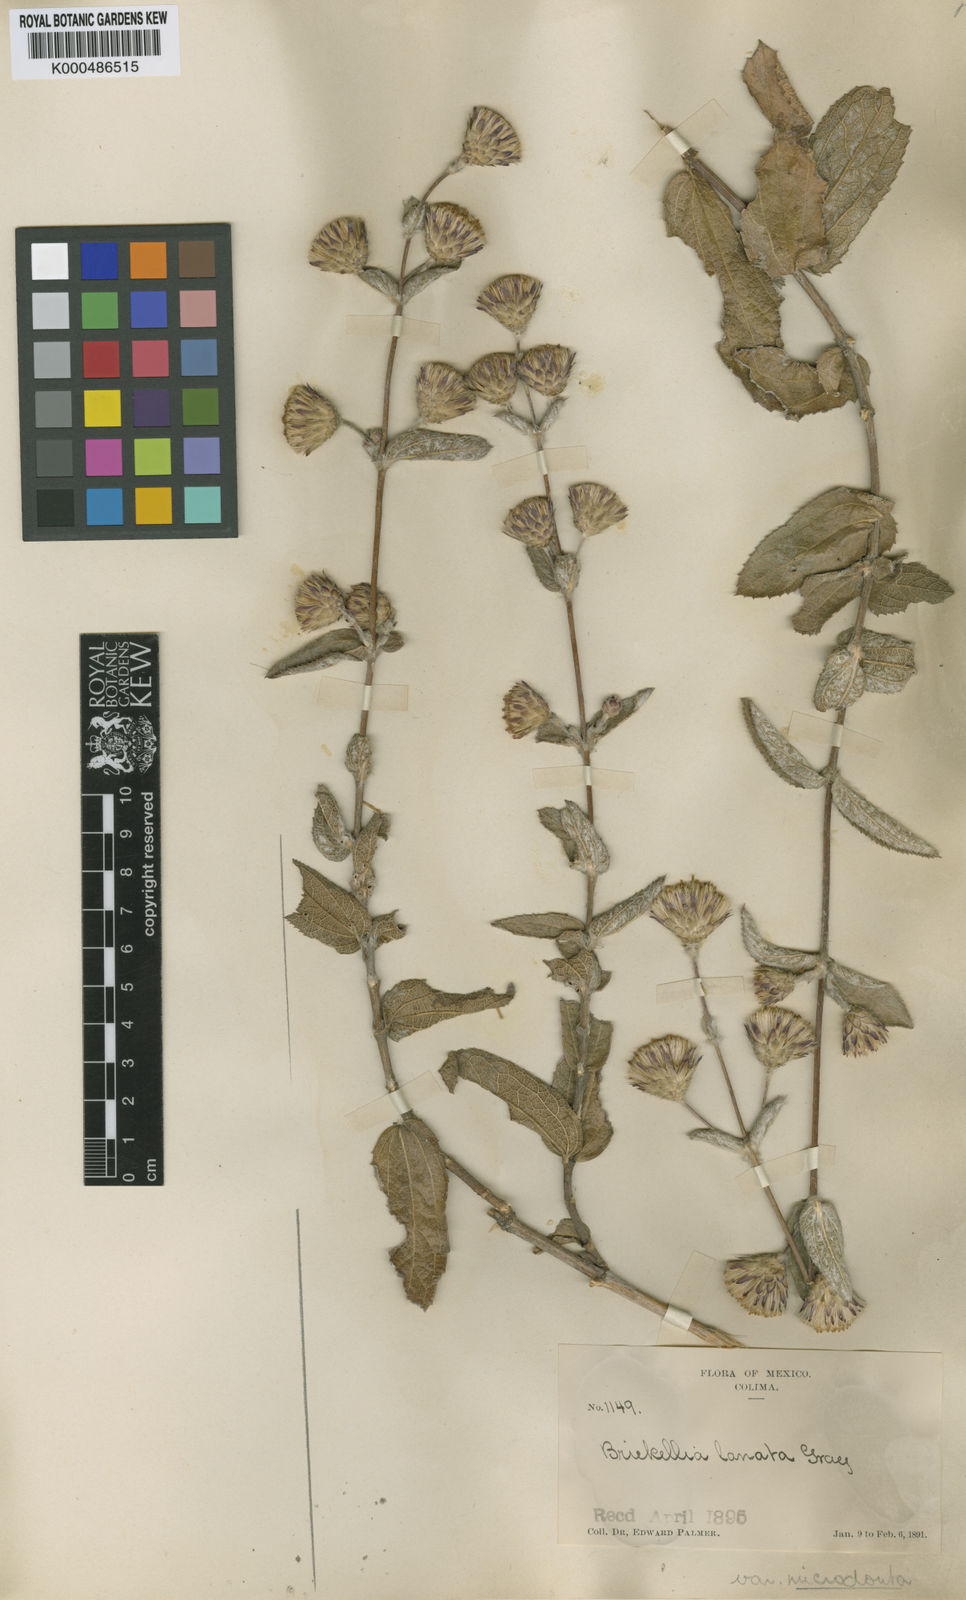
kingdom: Plantae
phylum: Tracheophyta
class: Magnoliopsida
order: Asterales
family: Asteraceae
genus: Brickellia
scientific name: Brickellia lanata
